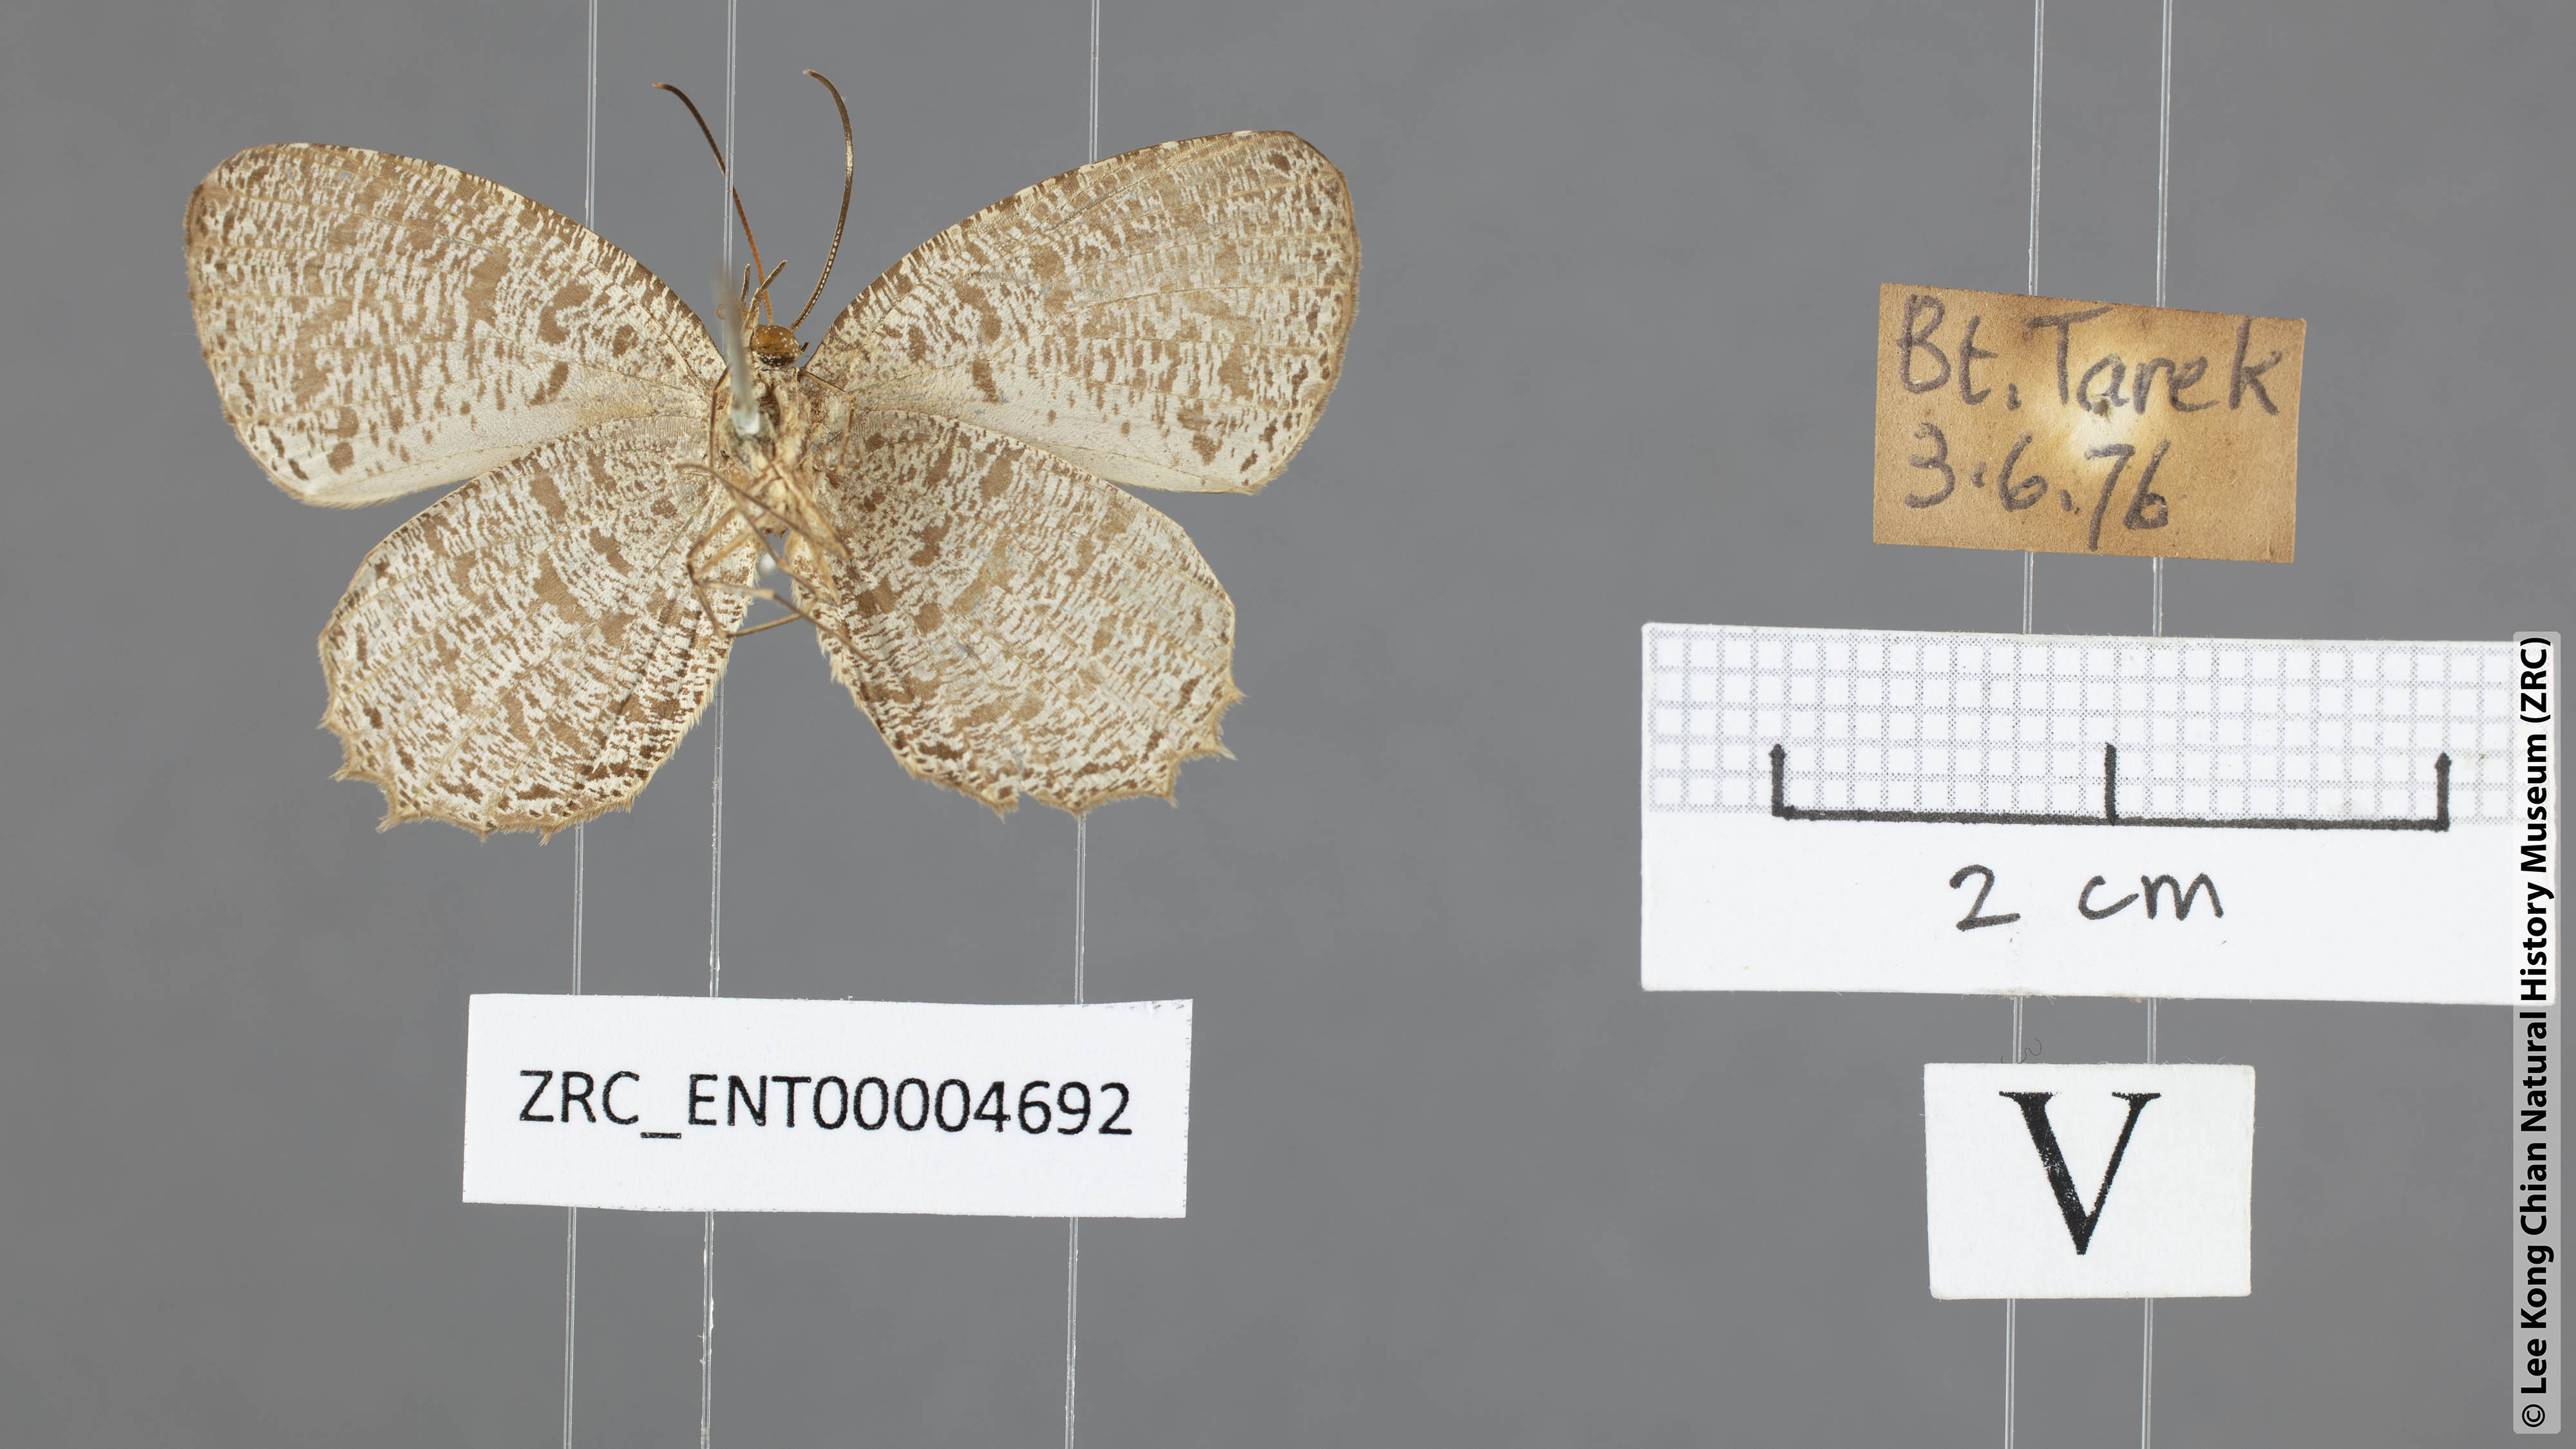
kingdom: Animalia
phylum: Arthropoda
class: Insecta
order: Lepidoptera
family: Lycaenidae
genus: Allotinus
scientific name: Allotinus leogoron
